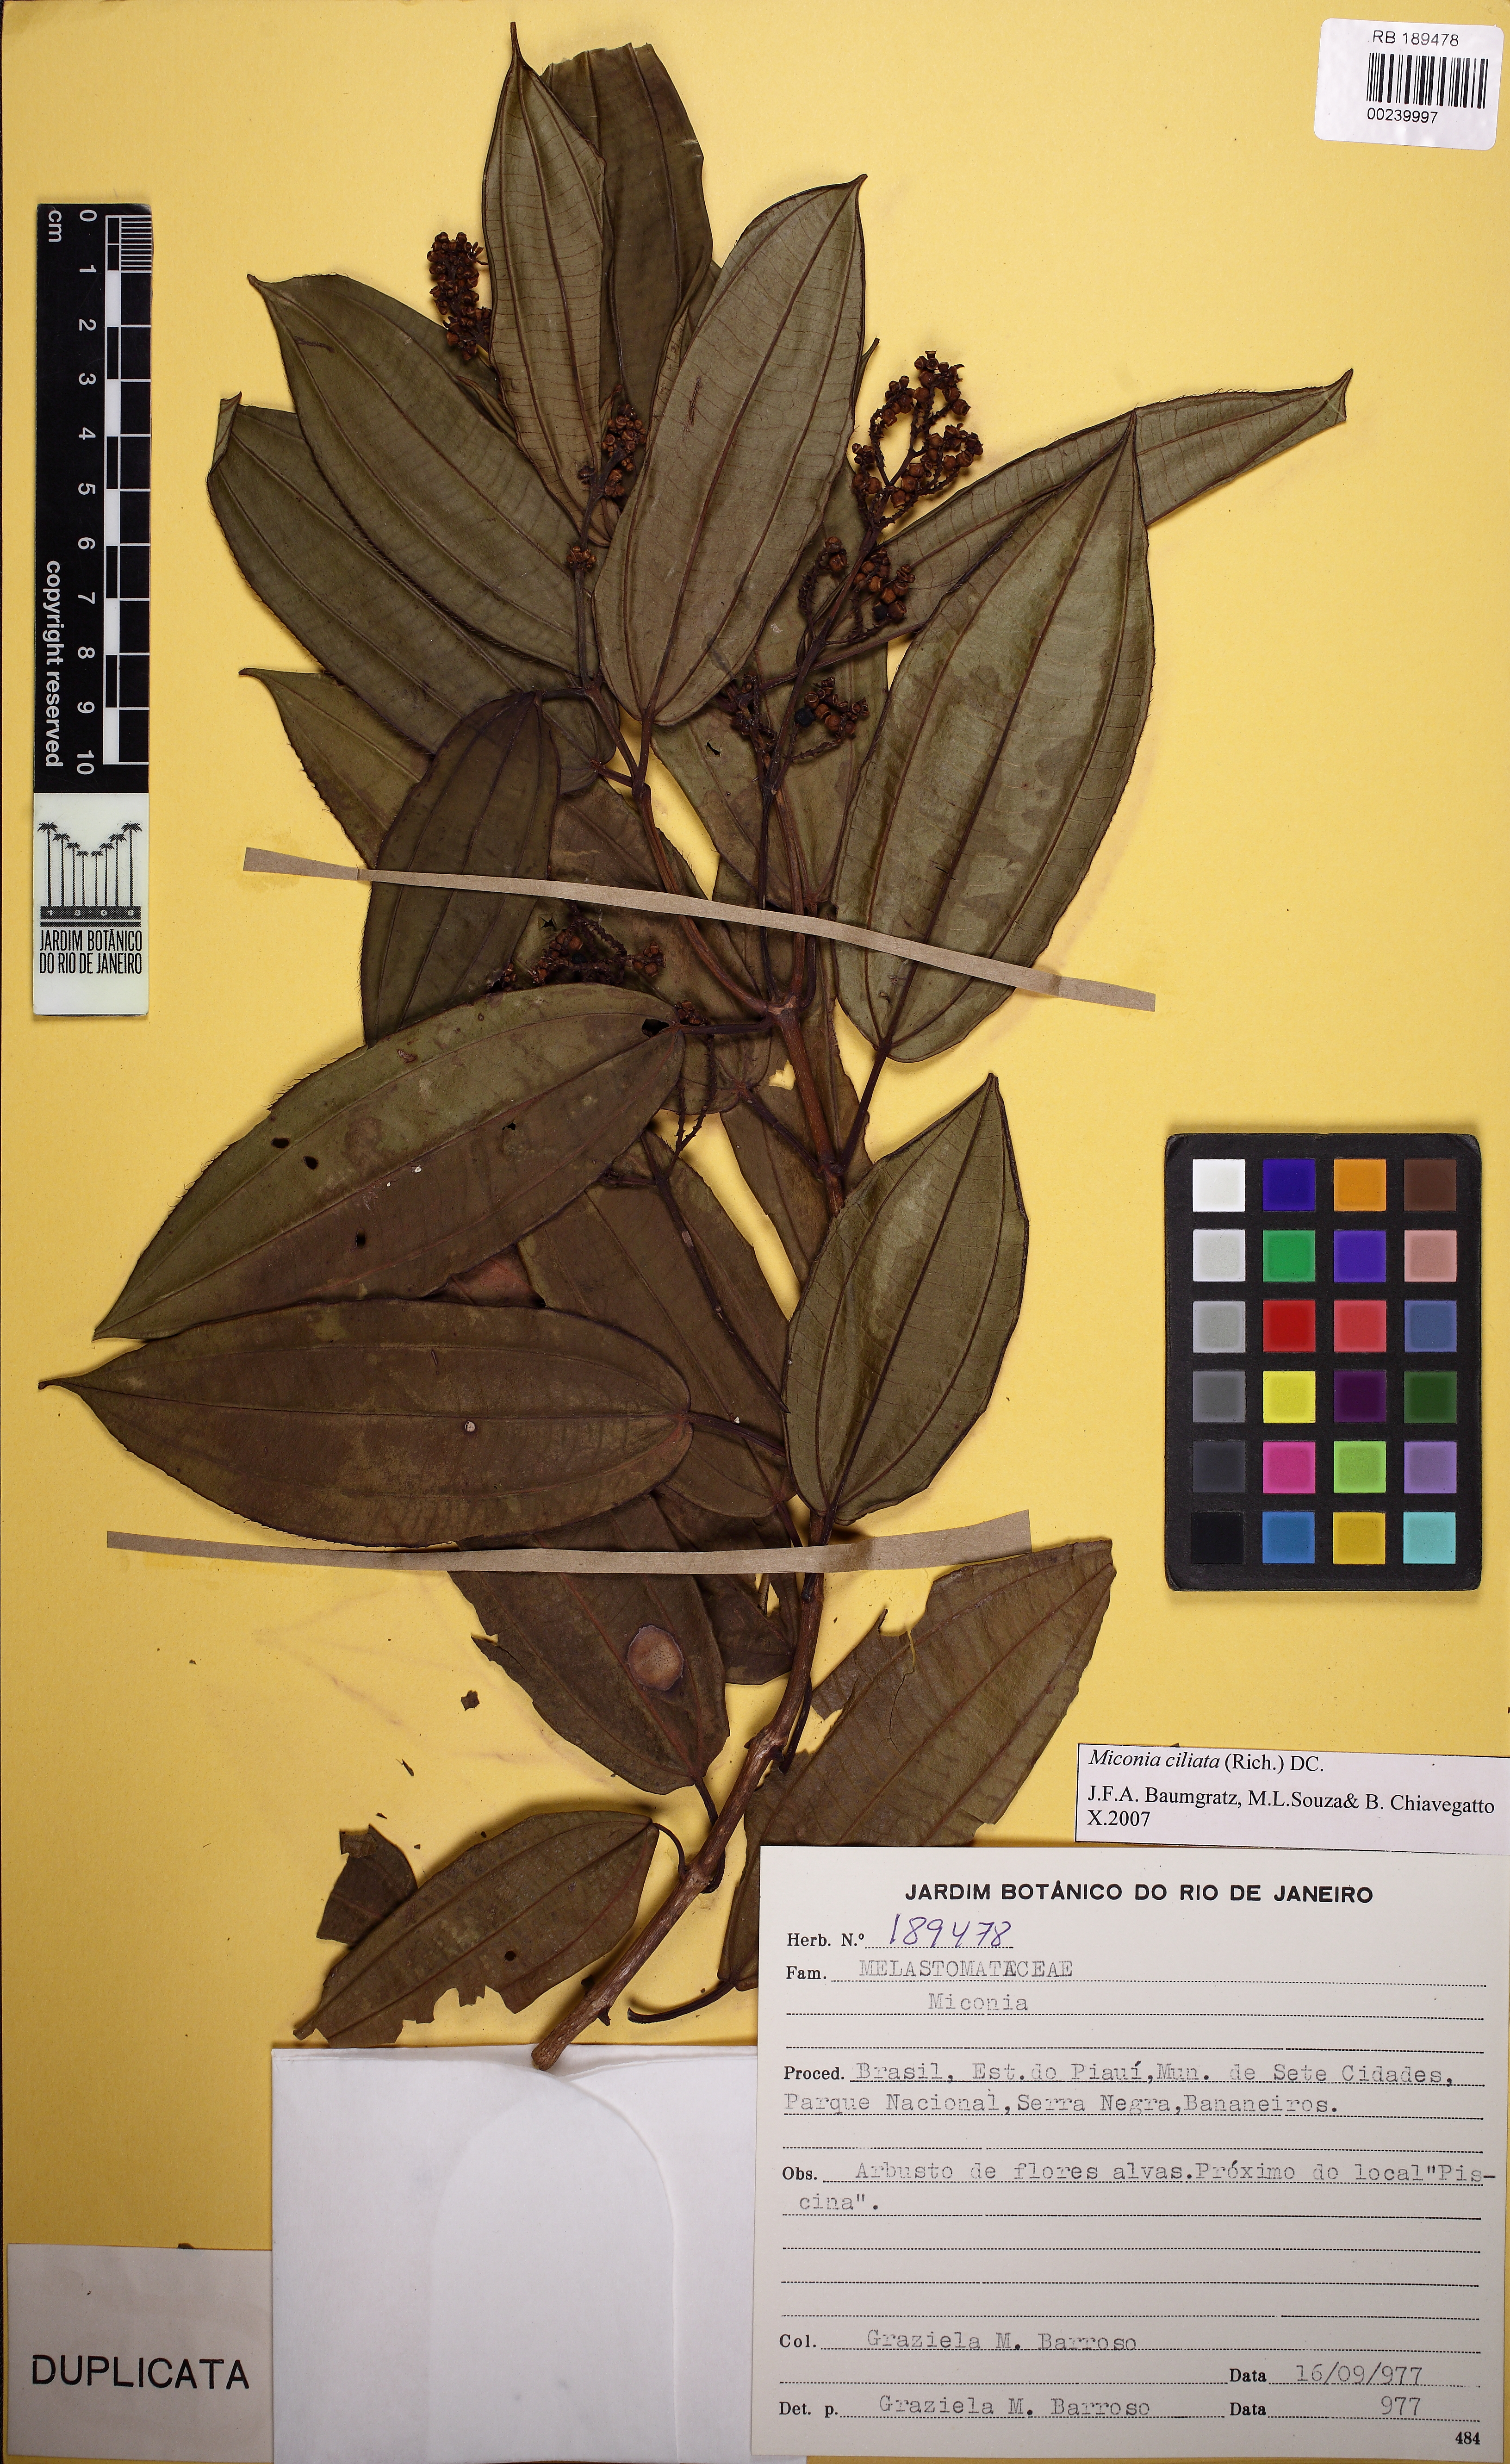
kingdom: Plantae
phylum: Tracheophyta
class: Magnoliopsida
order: Myrtales
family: Melastomataceae
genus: Miconia
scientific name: Miconia ciliata
